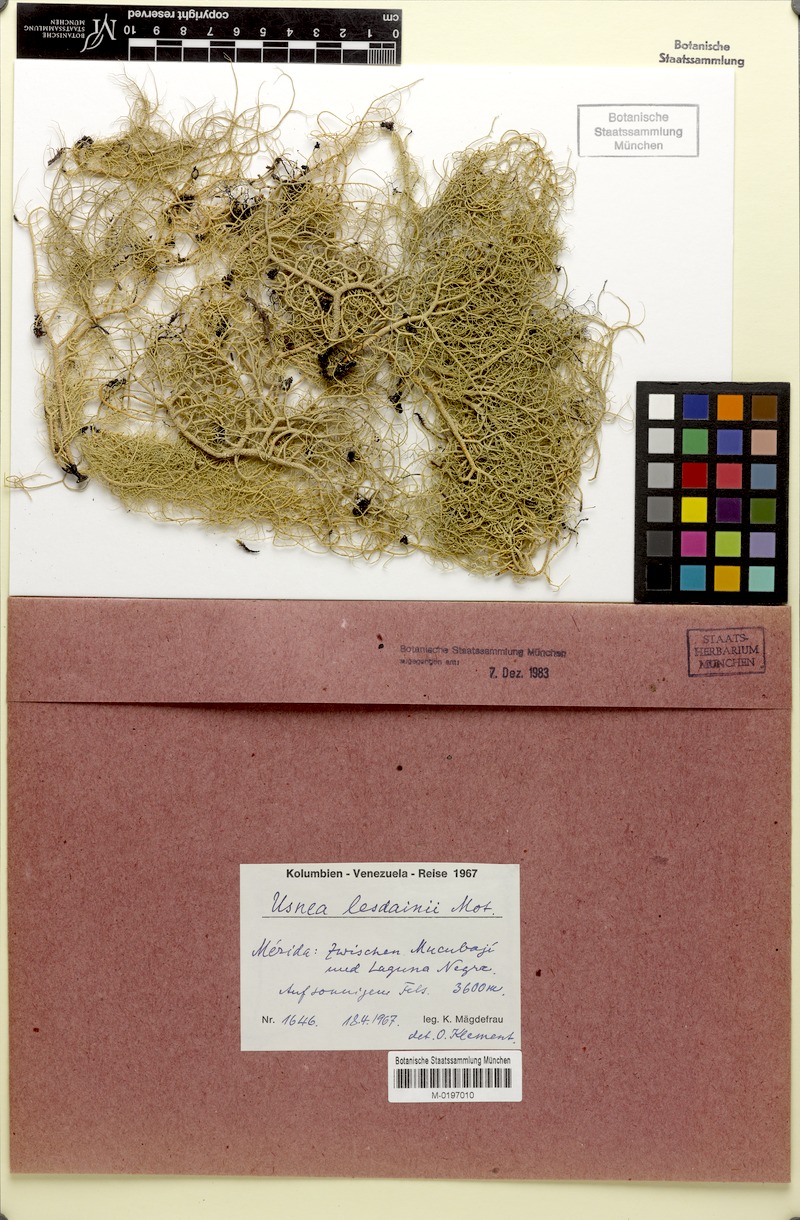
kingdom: Fungi
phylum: Ascomycota
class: Lecanoromycetes
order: Lecanorales
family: Parmeliaceae
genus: Usnea
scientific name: Usnea lesdainii
